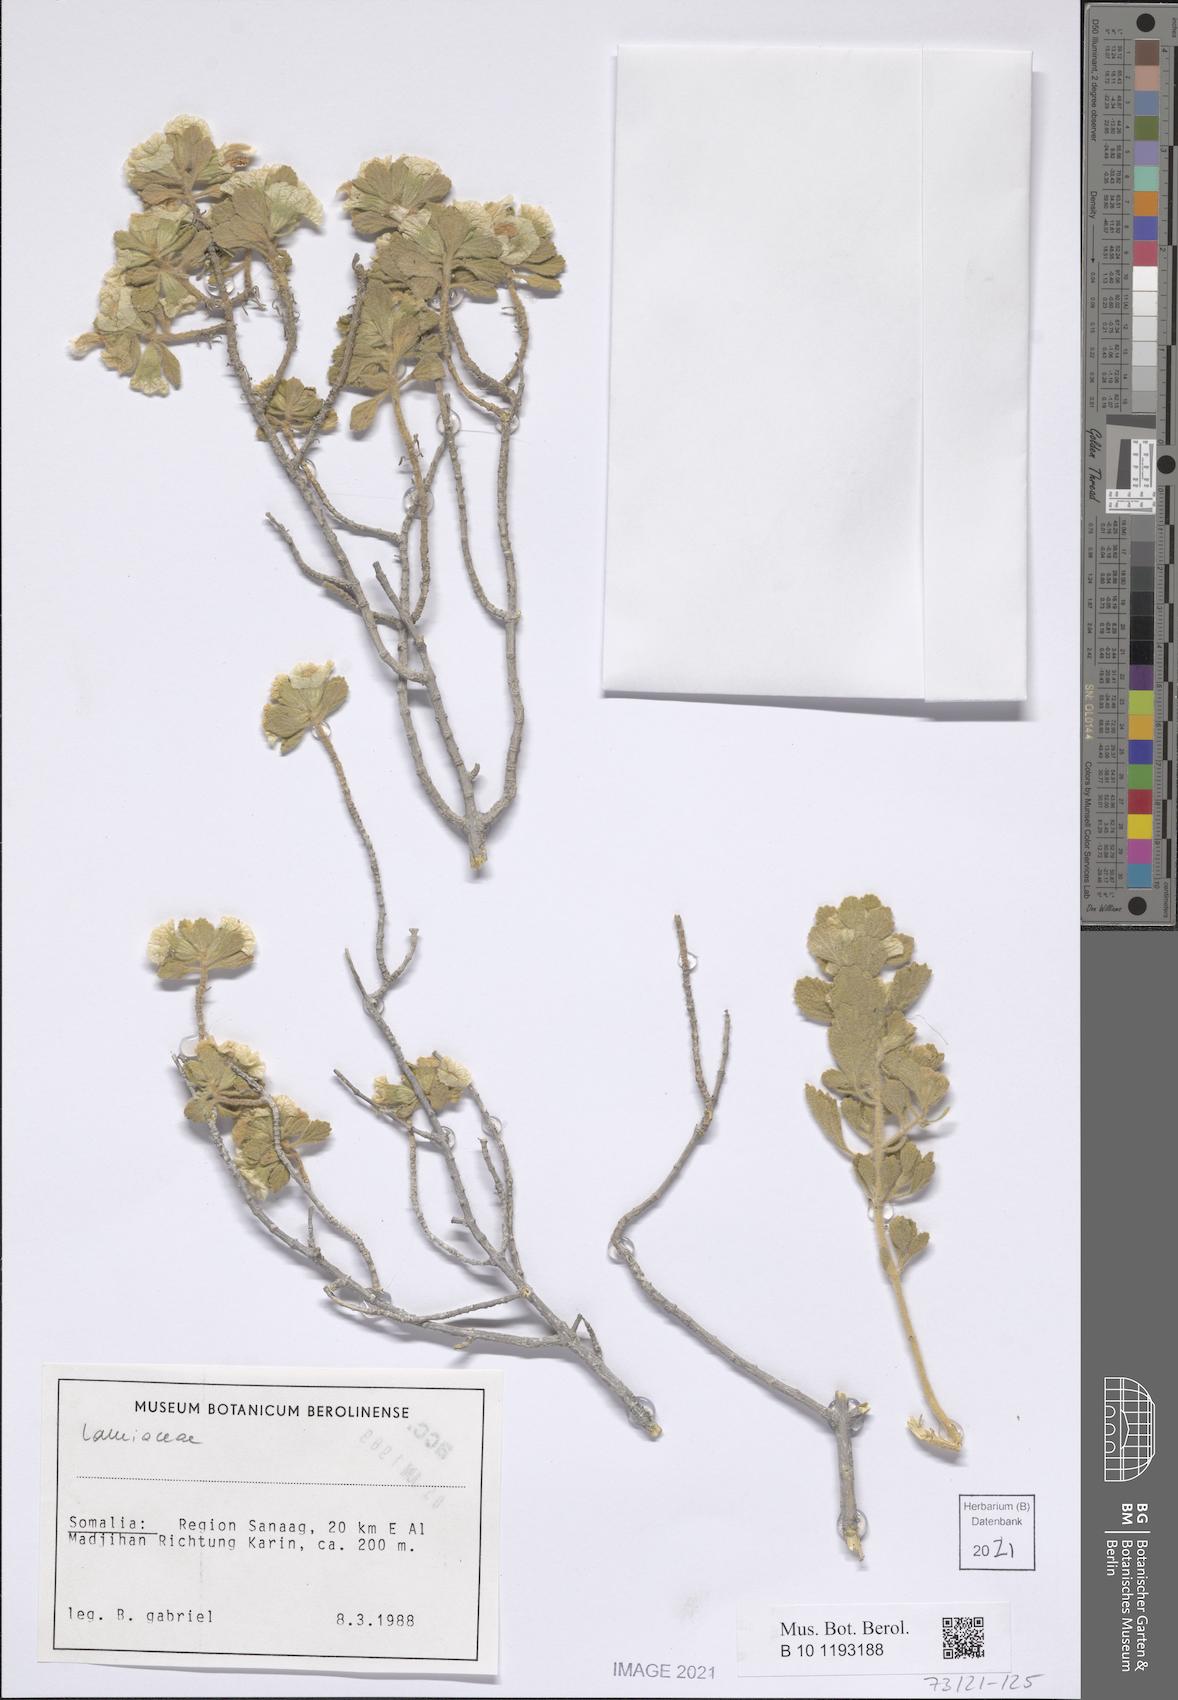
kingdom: Plantae
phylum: Tracheophyta
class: Magnoliopsida
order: Lamiales
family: Lamiaceae
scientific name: Lamiaceae
